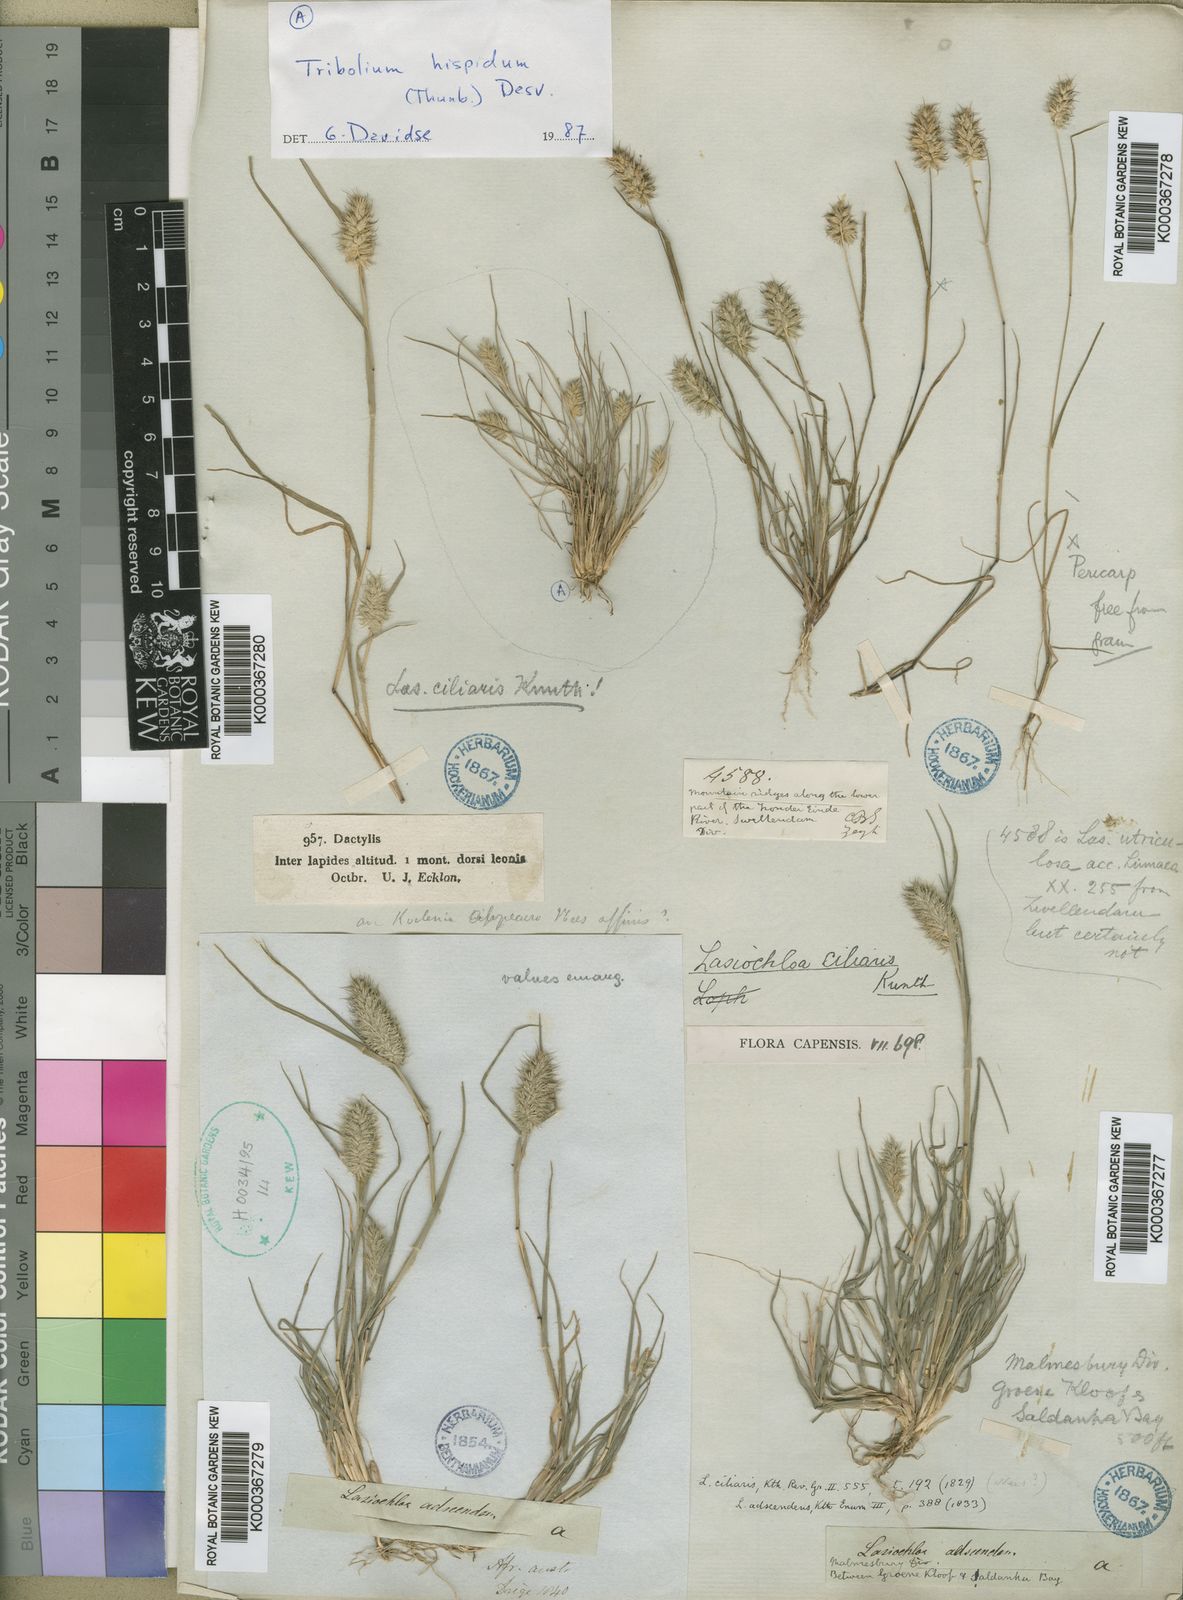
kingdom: Plantae
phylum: Tracheophyta
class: Liliopsida
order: Poales
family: Poaceae
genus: Tribolium
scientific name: Tribolium echinatum
